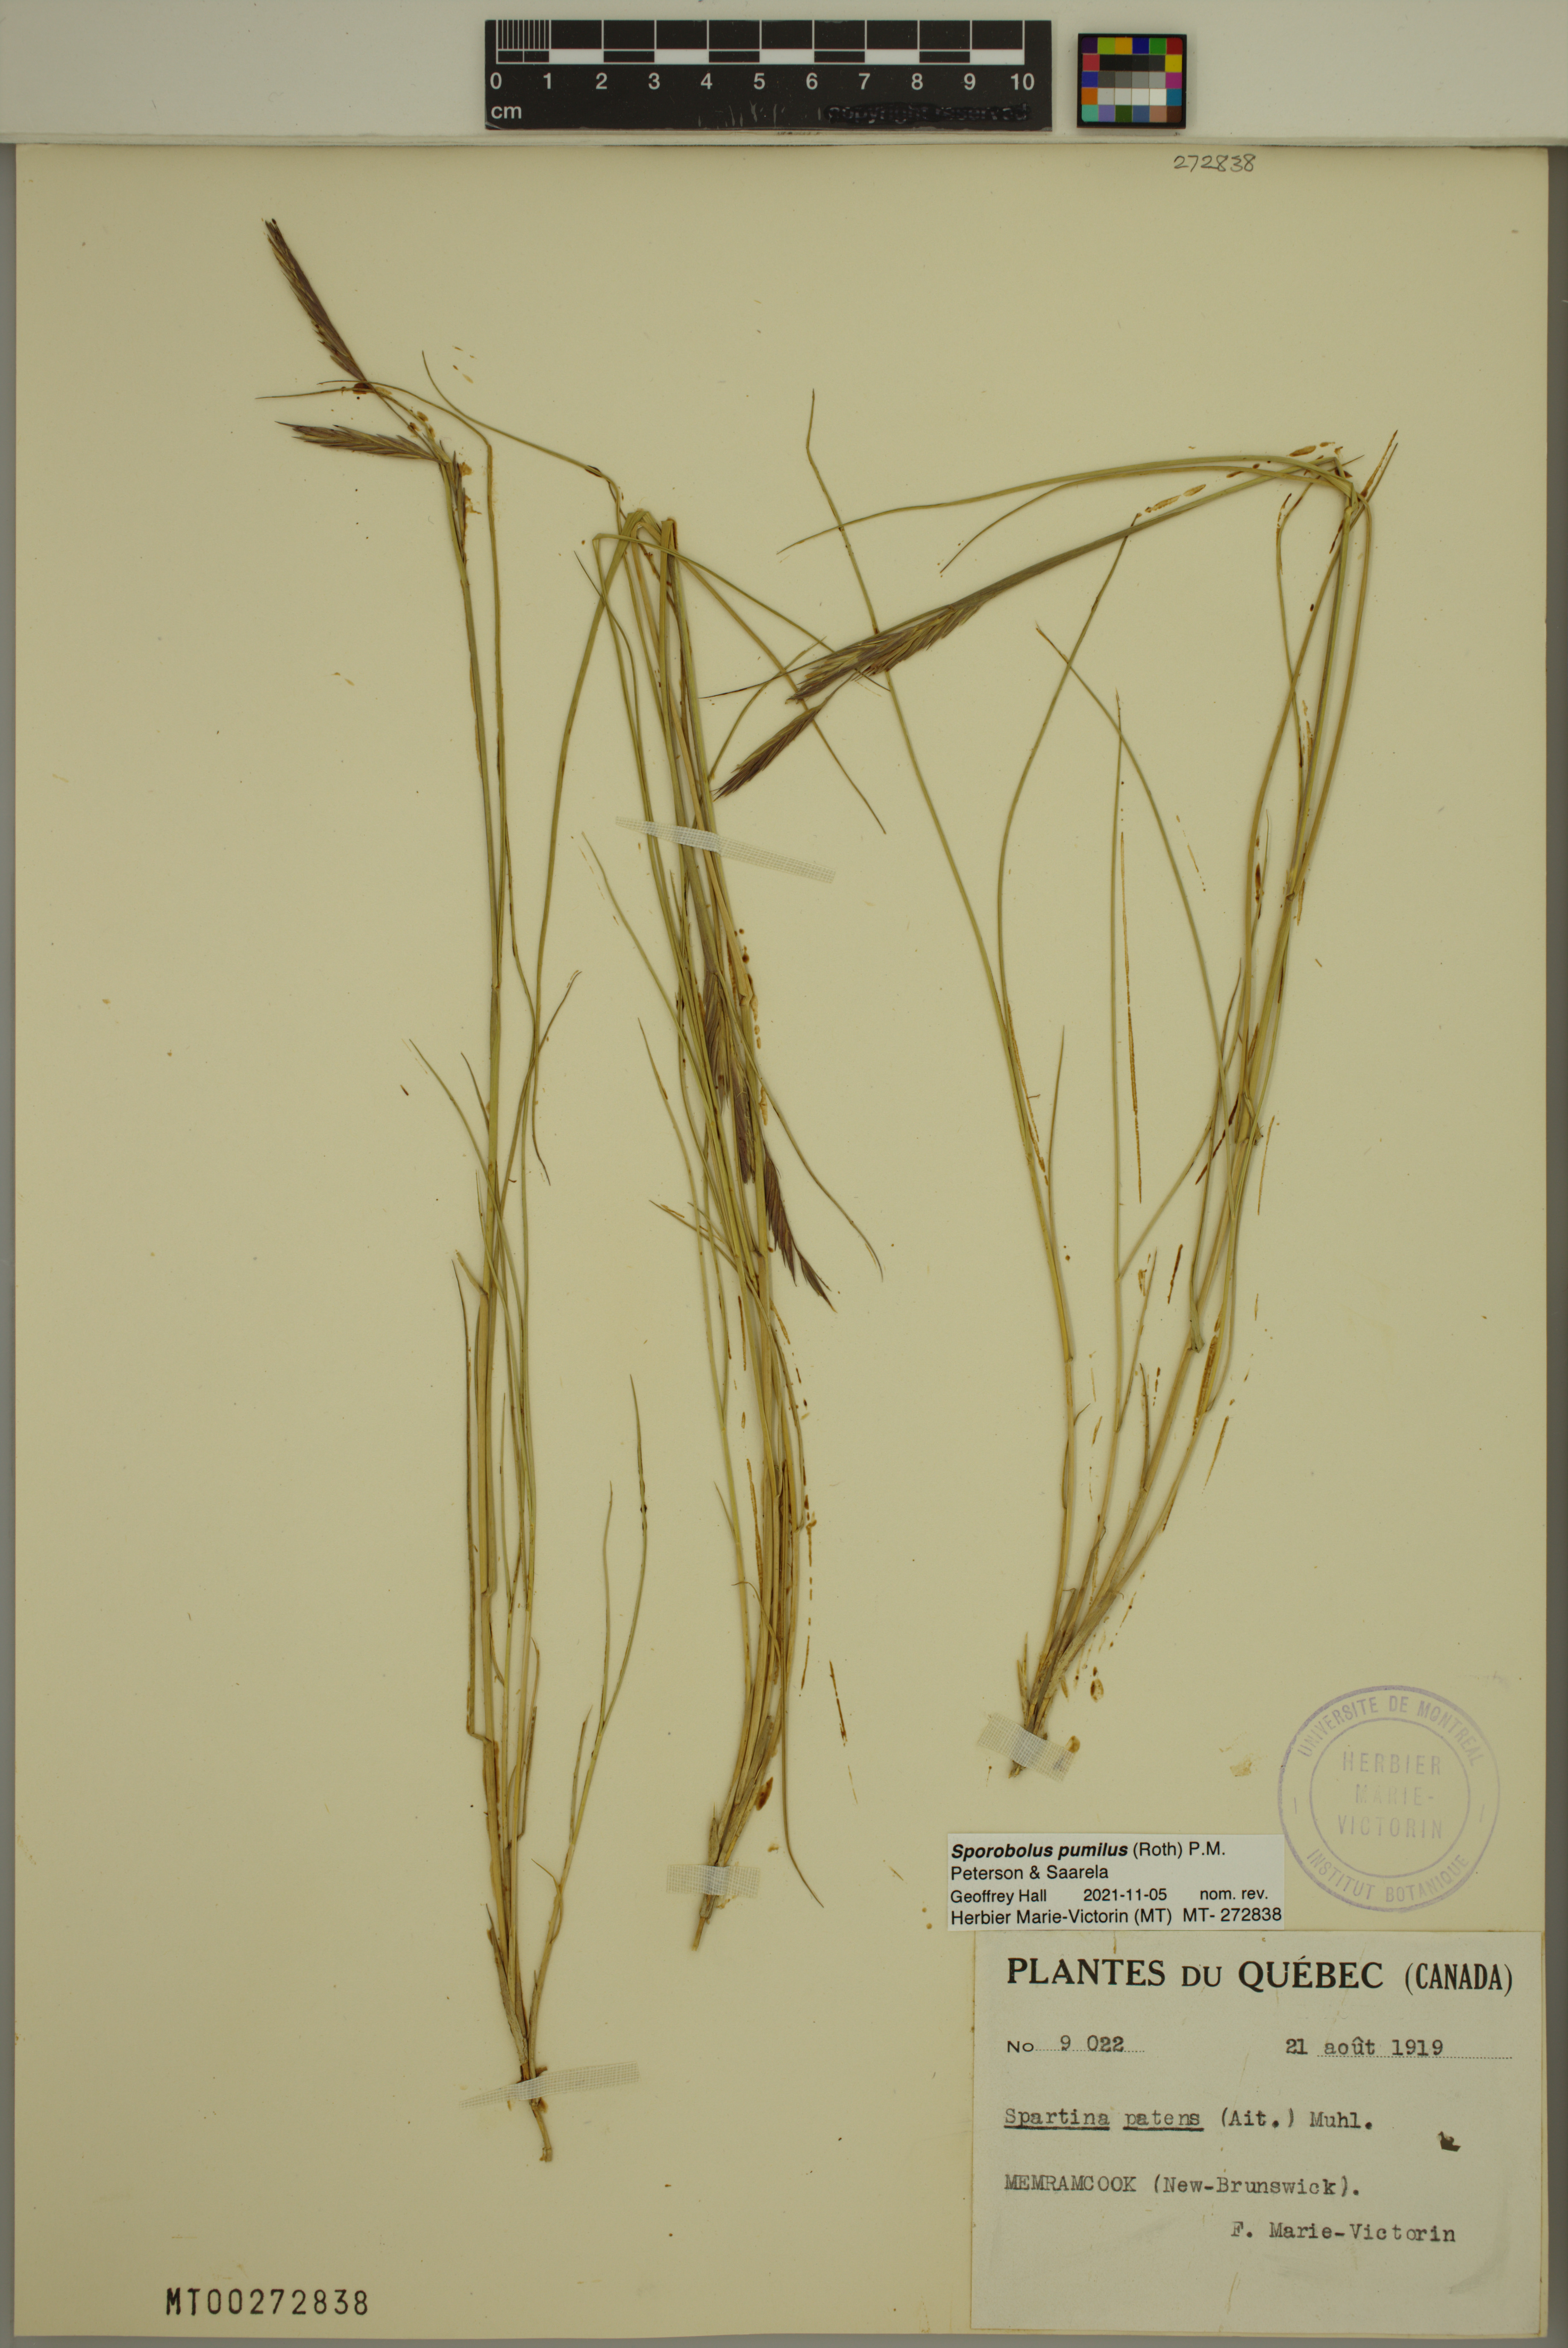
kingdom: Plantae
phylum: Tracheophyta
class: Liliopsida
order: Poales
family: Poaceae
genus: Sporobolus
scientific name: Sporobolus pumilus
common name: Highwater grass
